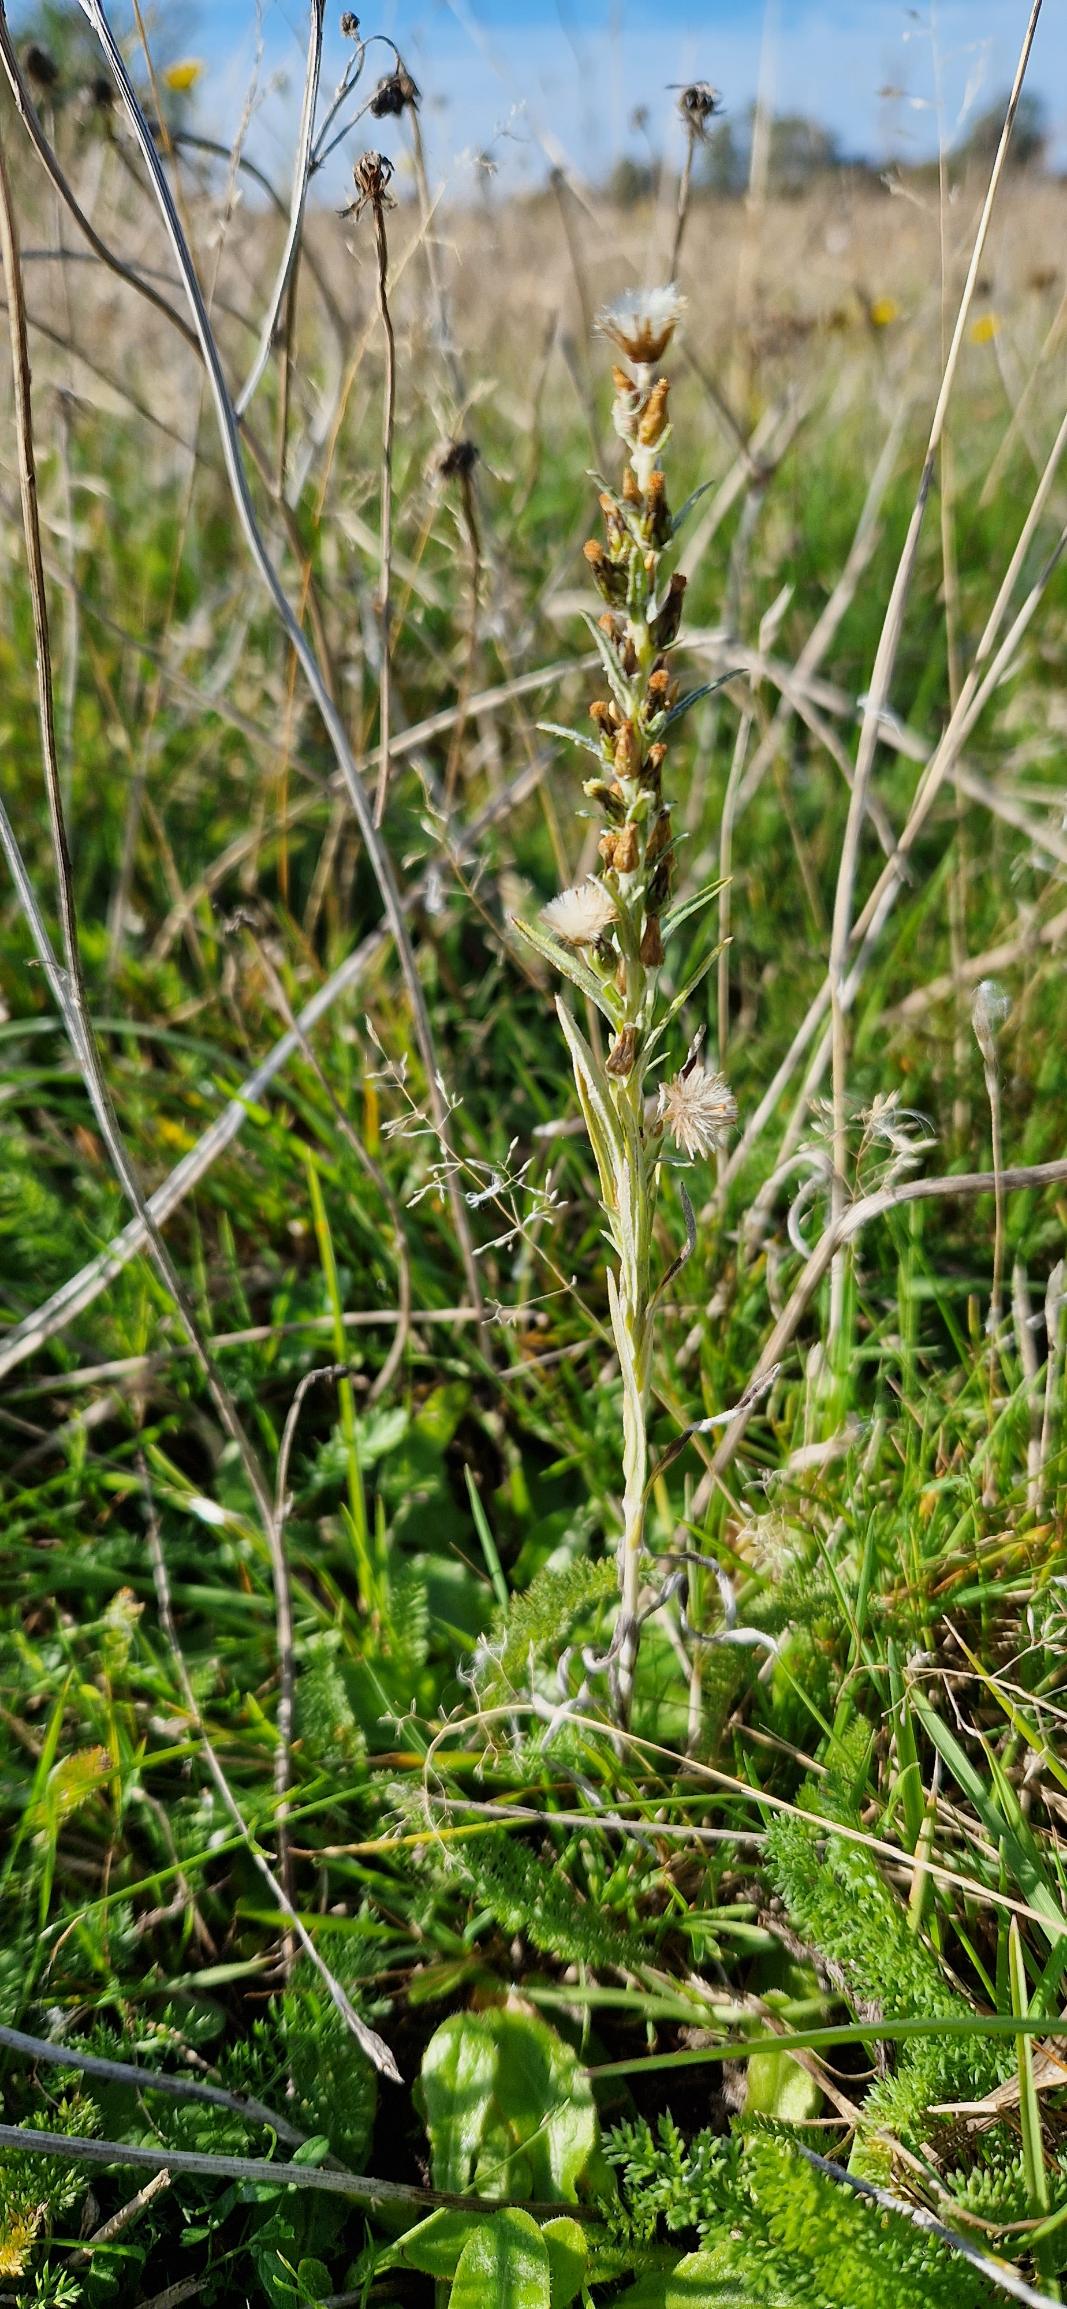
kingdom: Plantae
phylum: Tracheophyta
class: Magnoliopsida
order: Asterales
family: Asteraceae
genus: Omalotheca
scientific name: Omalotheca sylvatica
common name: Rank evighedsblomst
